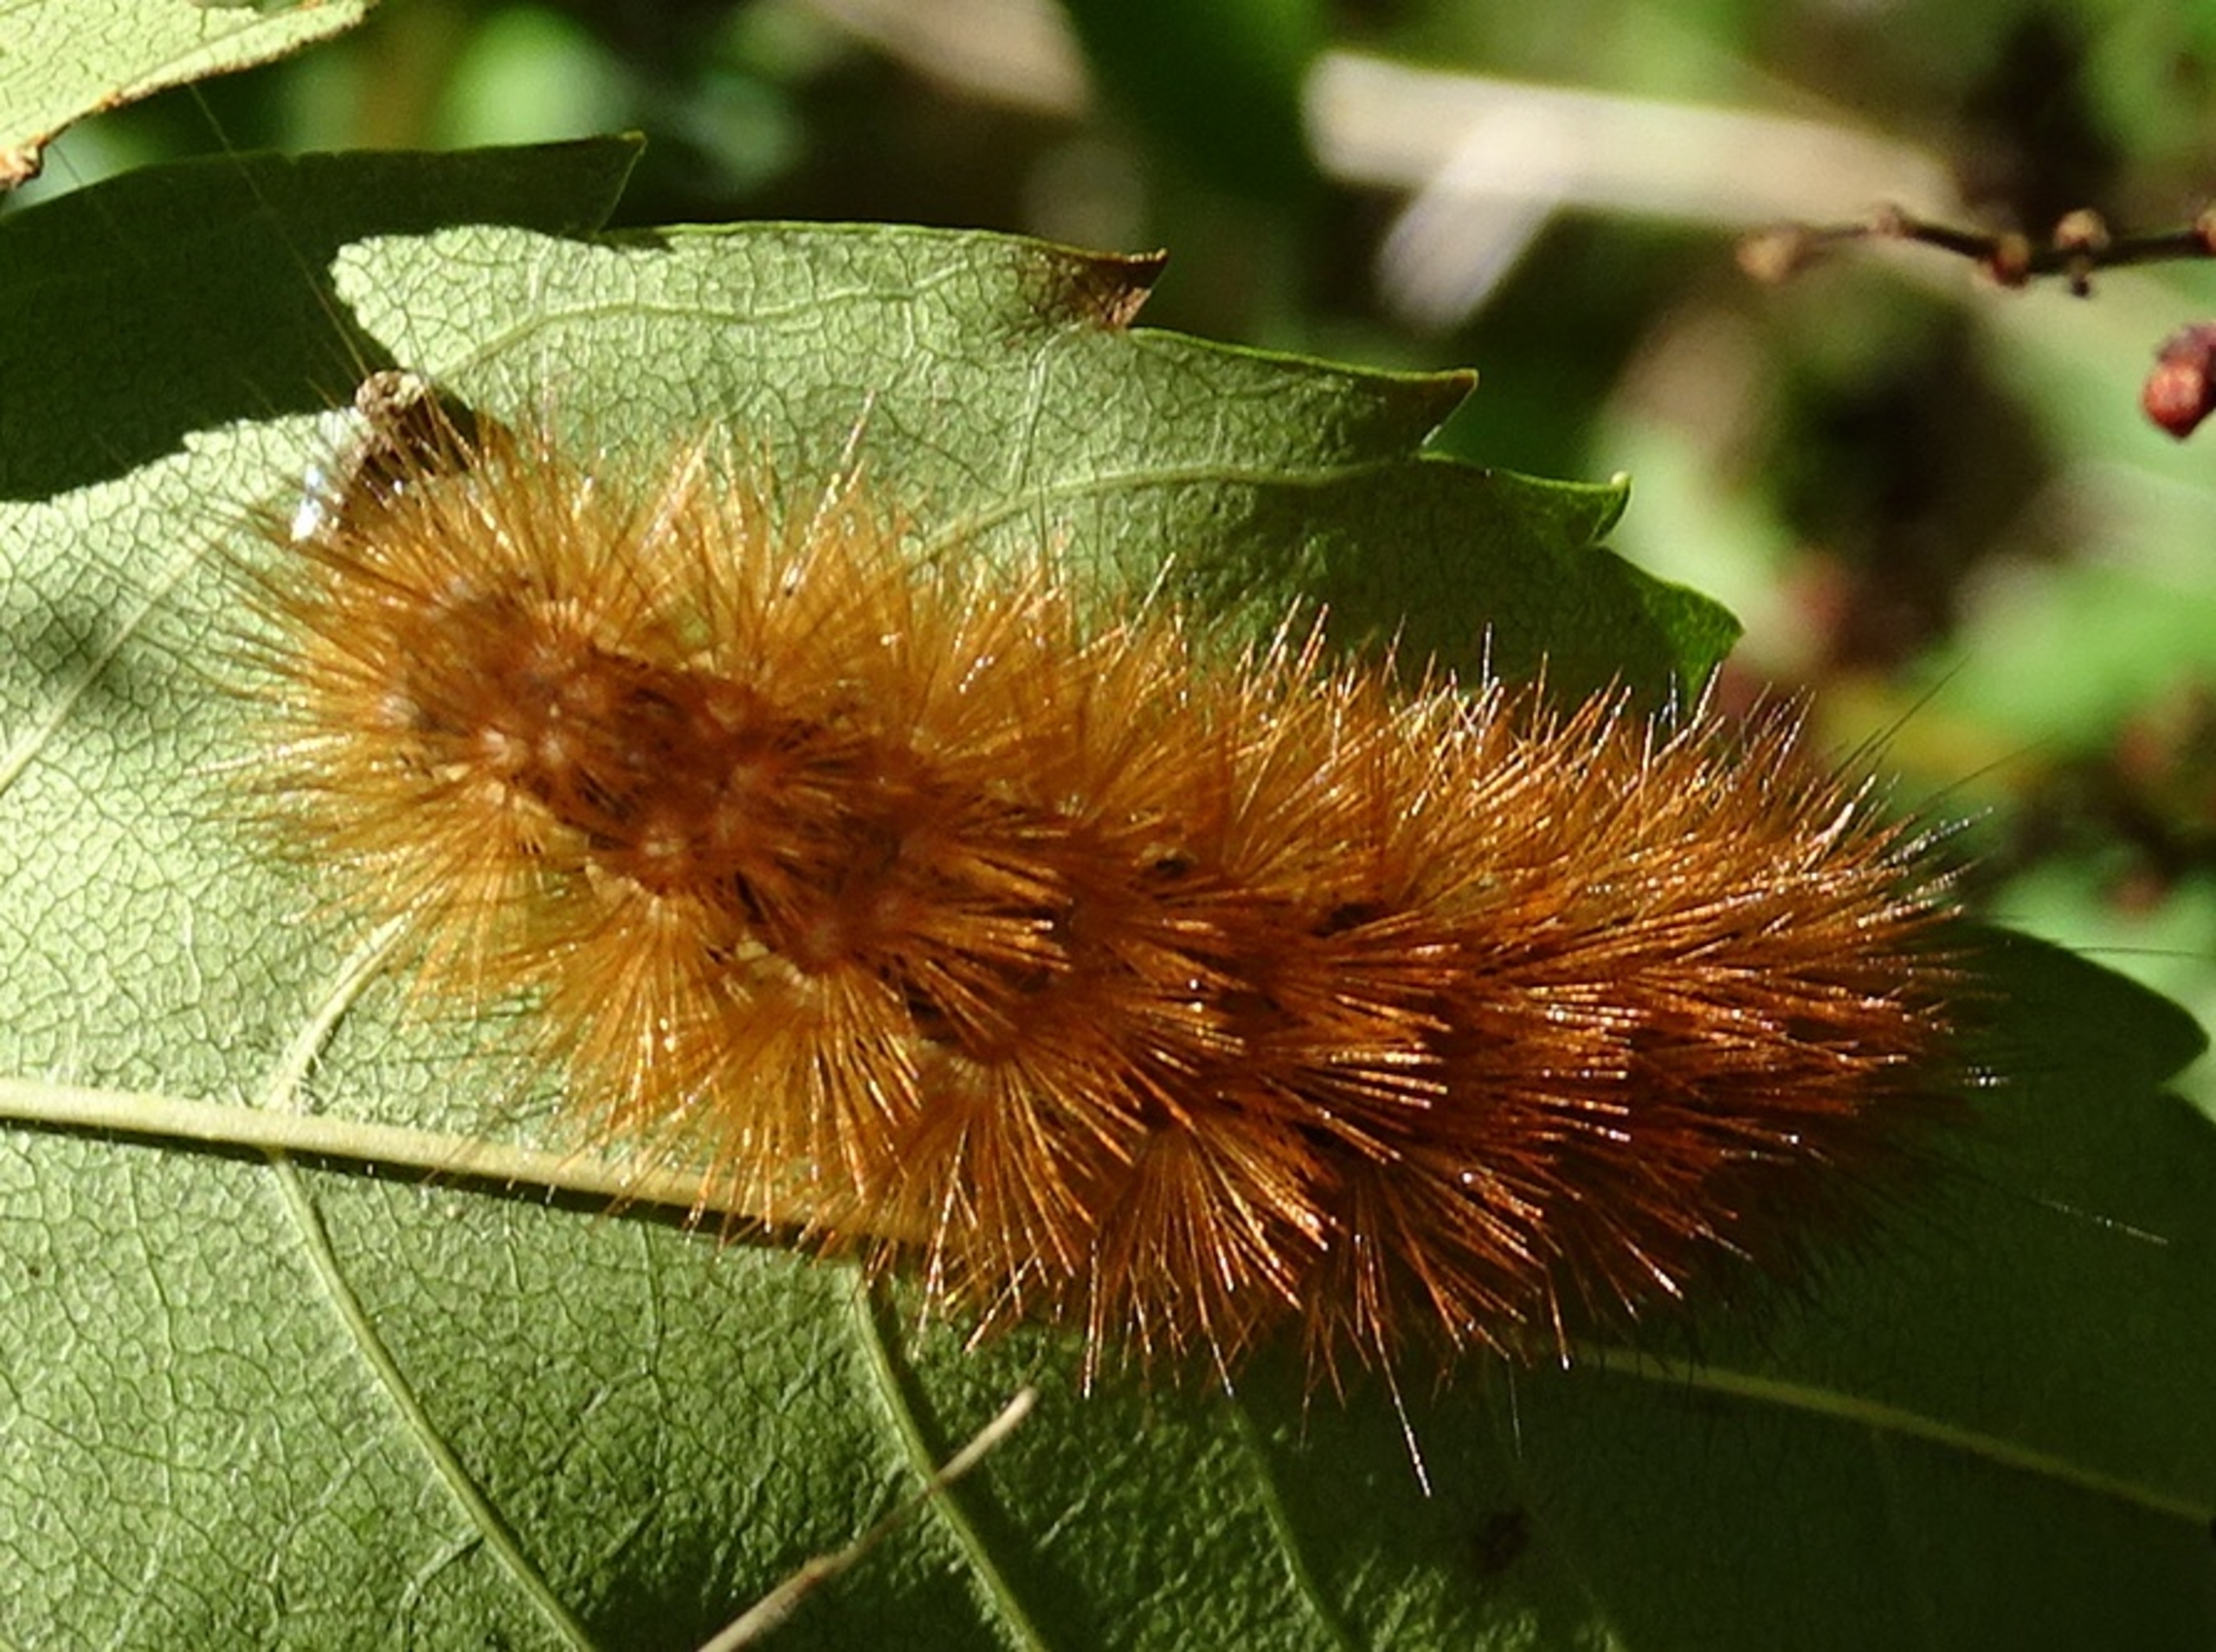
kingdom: Animalia
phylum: Arthropoda
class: Insecta
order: Lepidoptera
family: Erebidae
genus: Phragmatobia
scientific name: Phragmatobia fuliginosa
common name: Kanelbjørn
